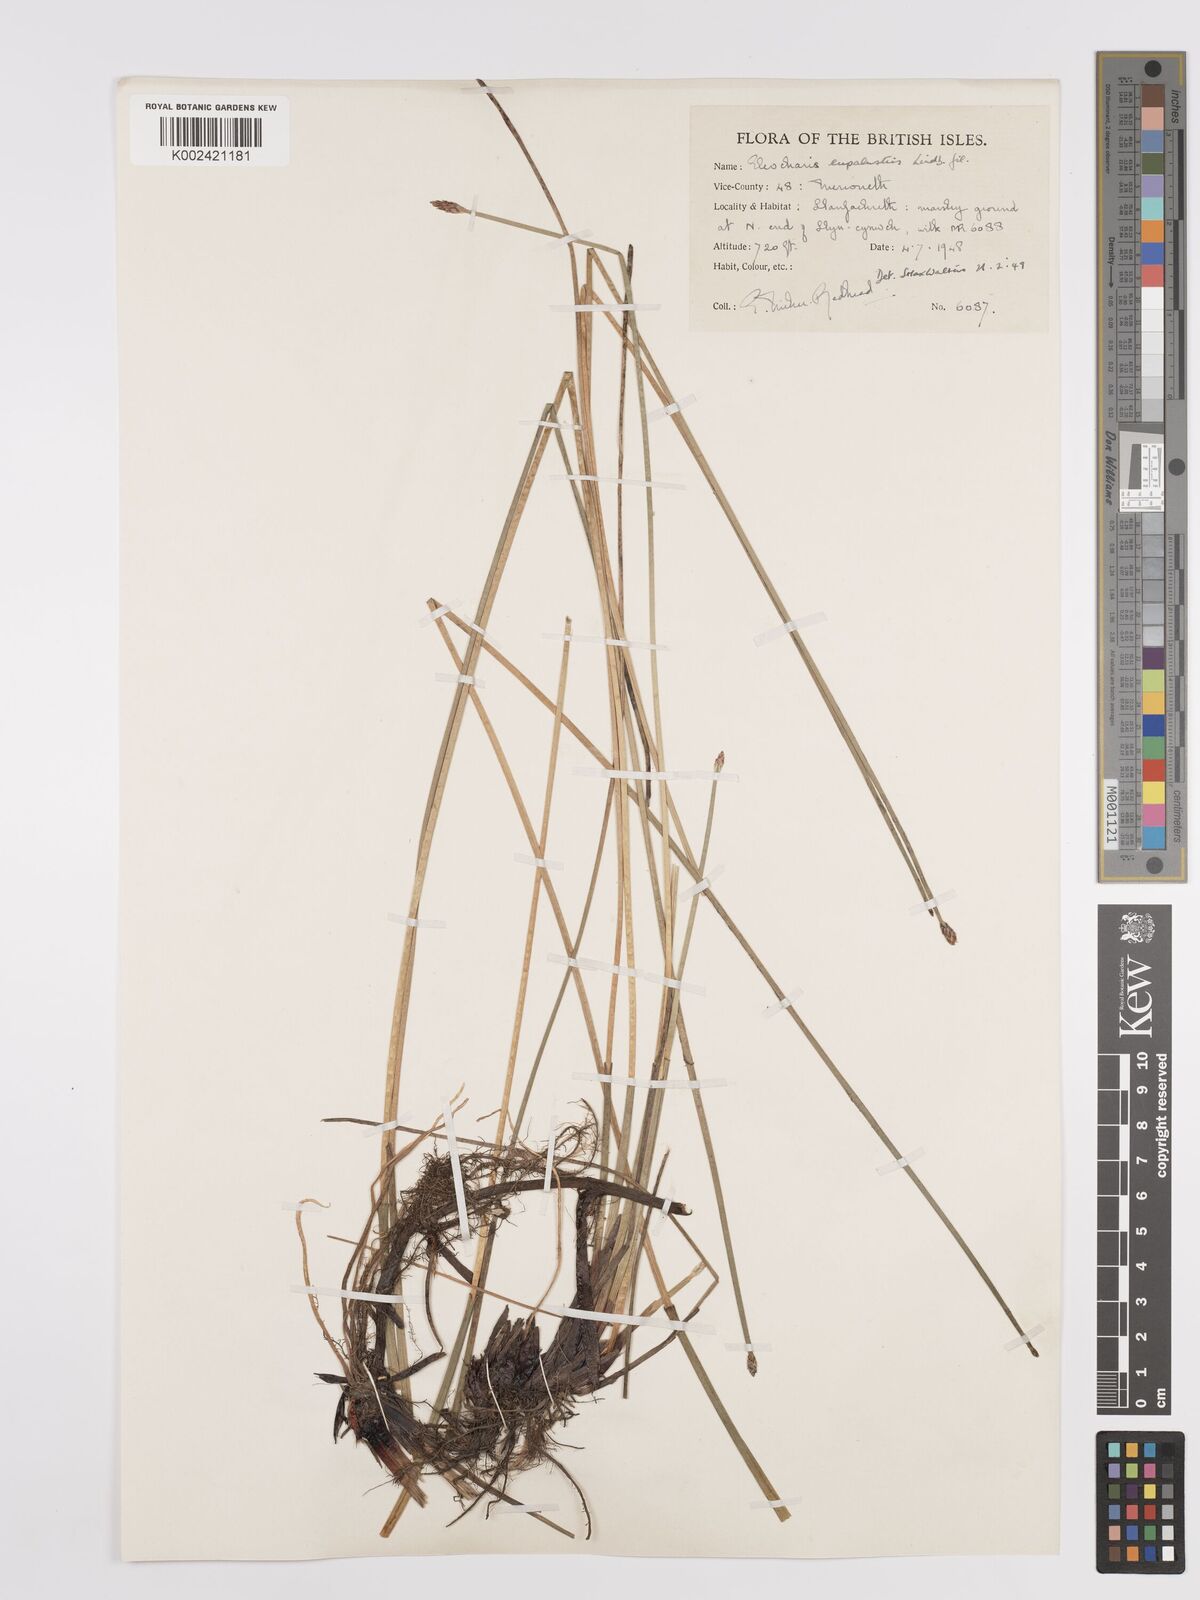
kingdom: Plantae
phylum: Tracheophyta
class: Liliopsida
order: Poales
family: Cyperaceae
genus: Eleocharis
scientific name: Eleocharis palustris
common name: Common spike-rush
